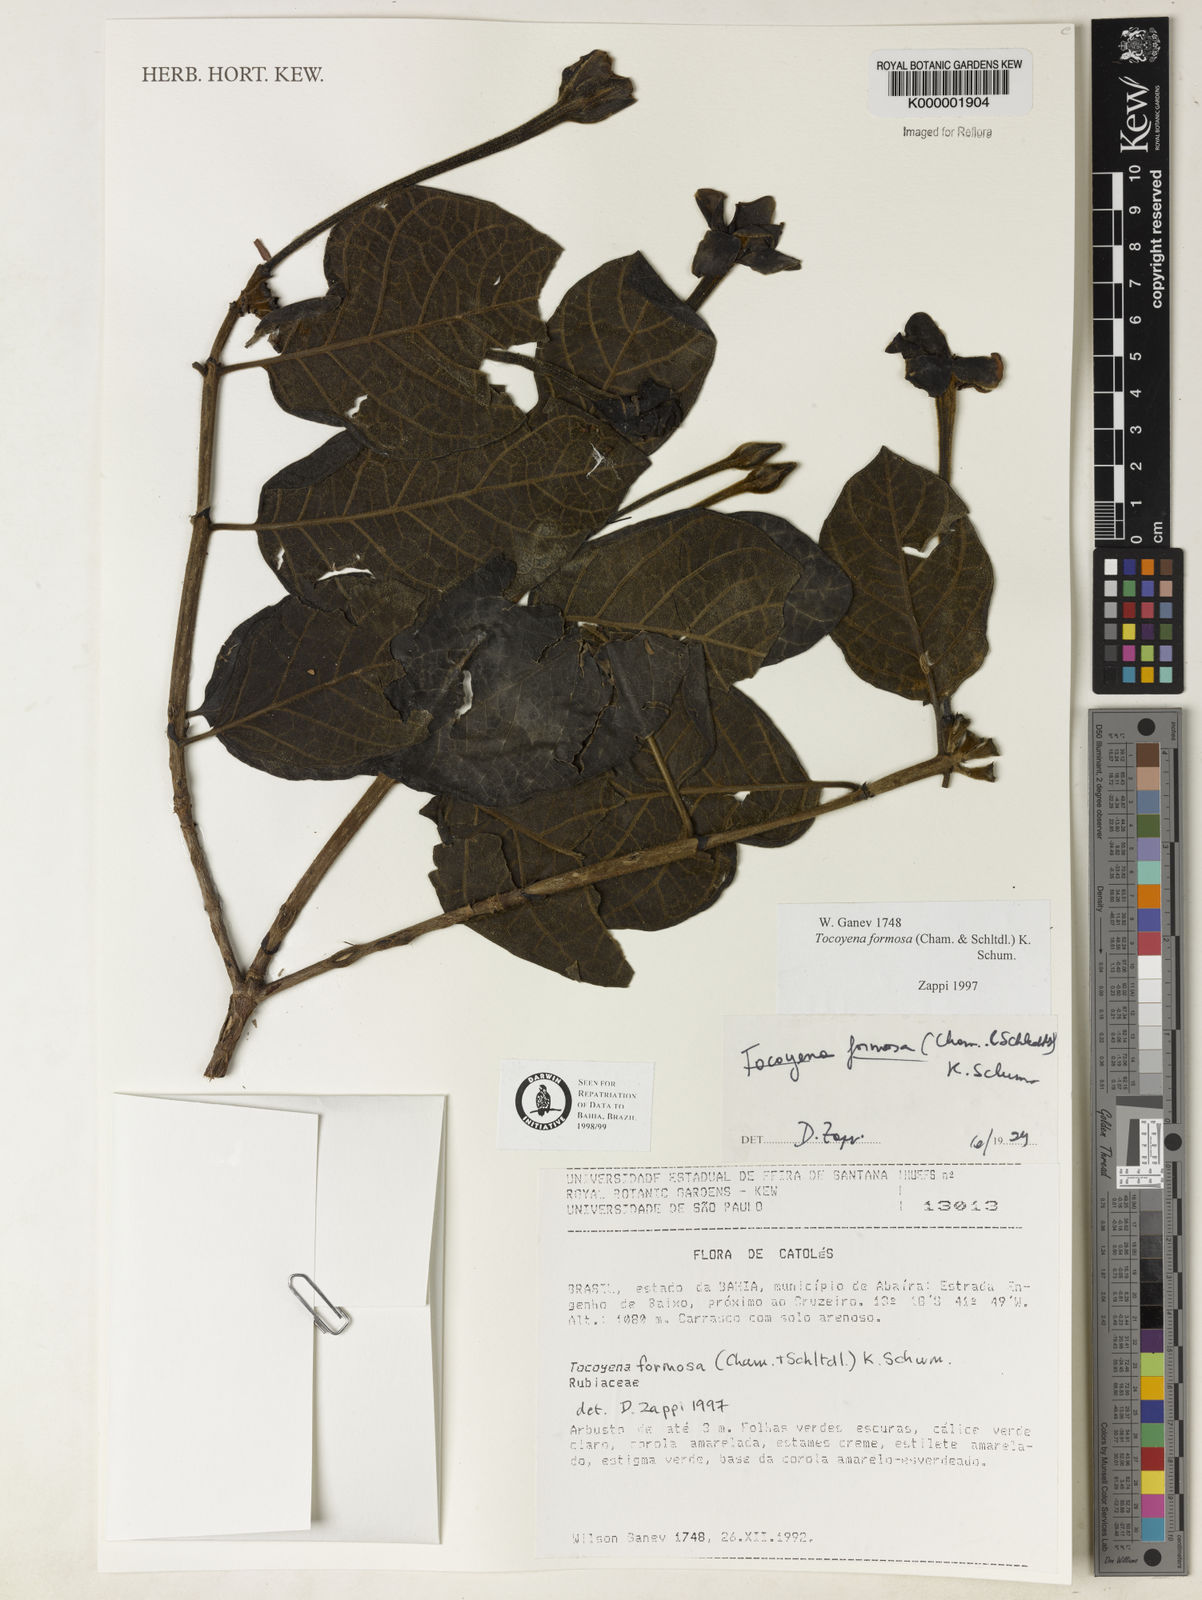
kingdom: Plantae
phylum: Tracheophyta
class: Magnoliopsida
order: Gentianales
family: Rubiaceae
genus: Tocoyena
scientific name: Tocoyena formosa
